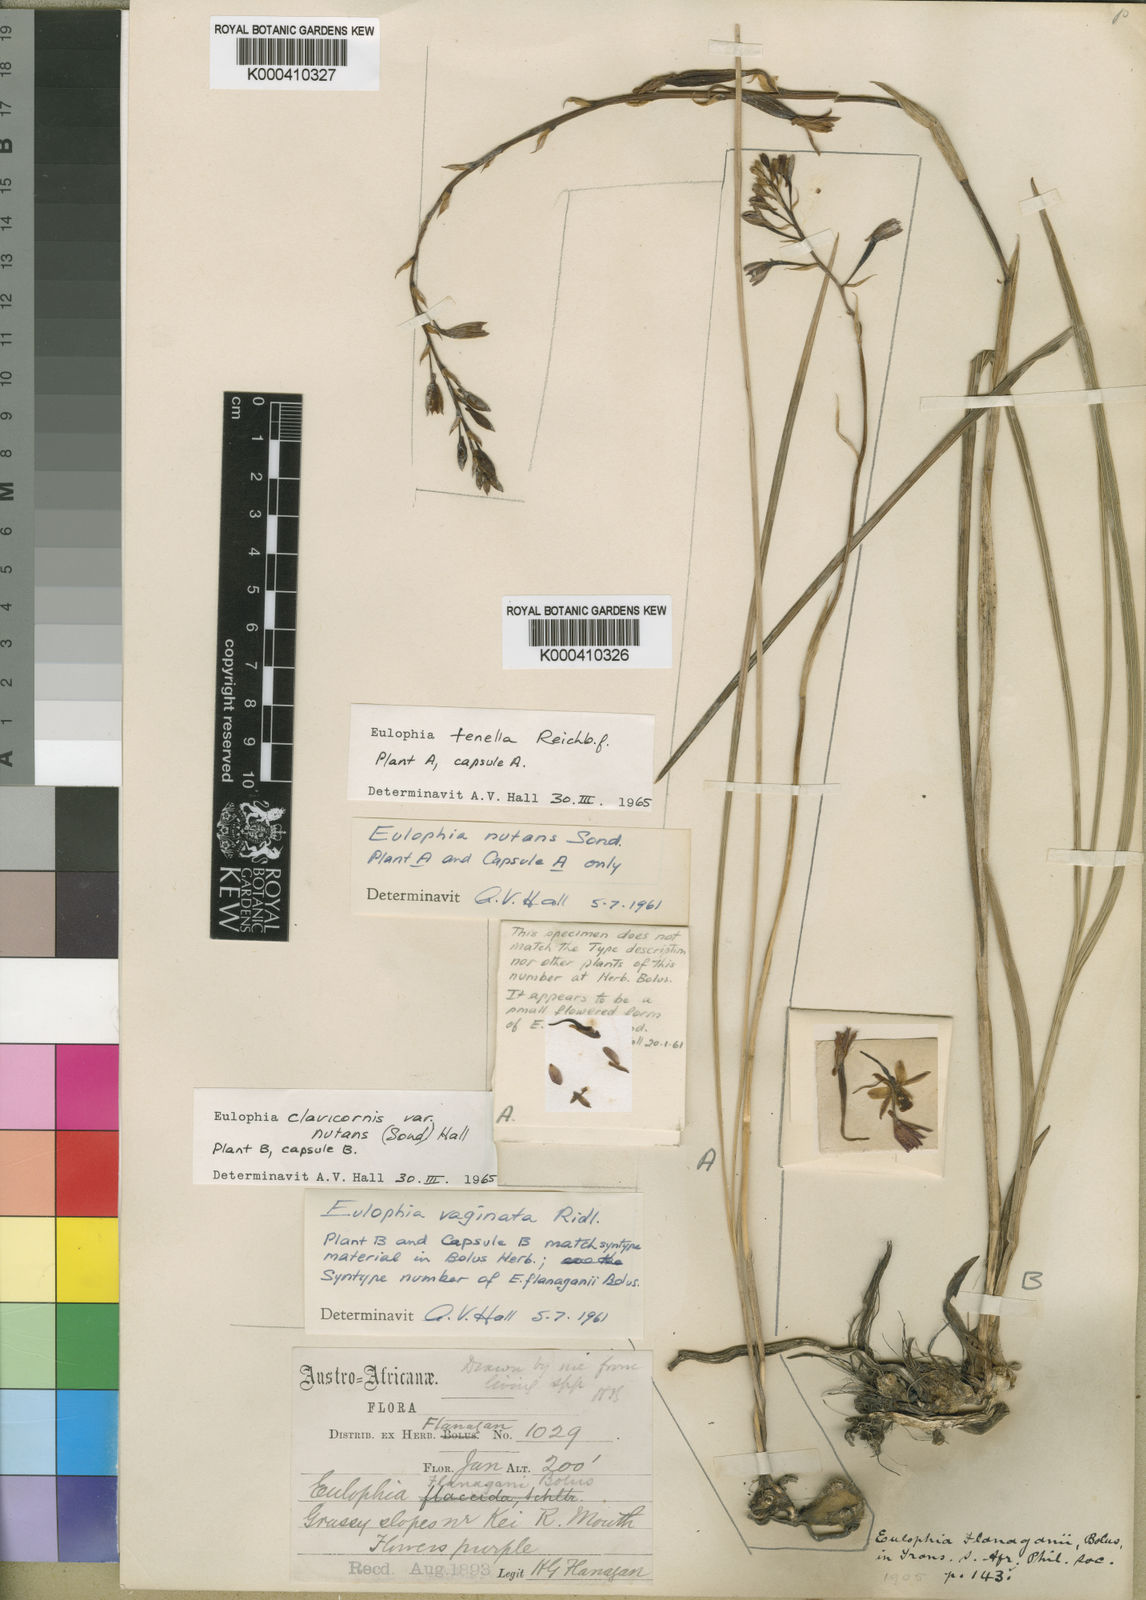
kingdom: Plantae
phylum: Tracheophyta
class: Liliopsida
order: Asparagales
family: Orchidaceae
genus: Eulophia
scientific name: Eulophia hians
